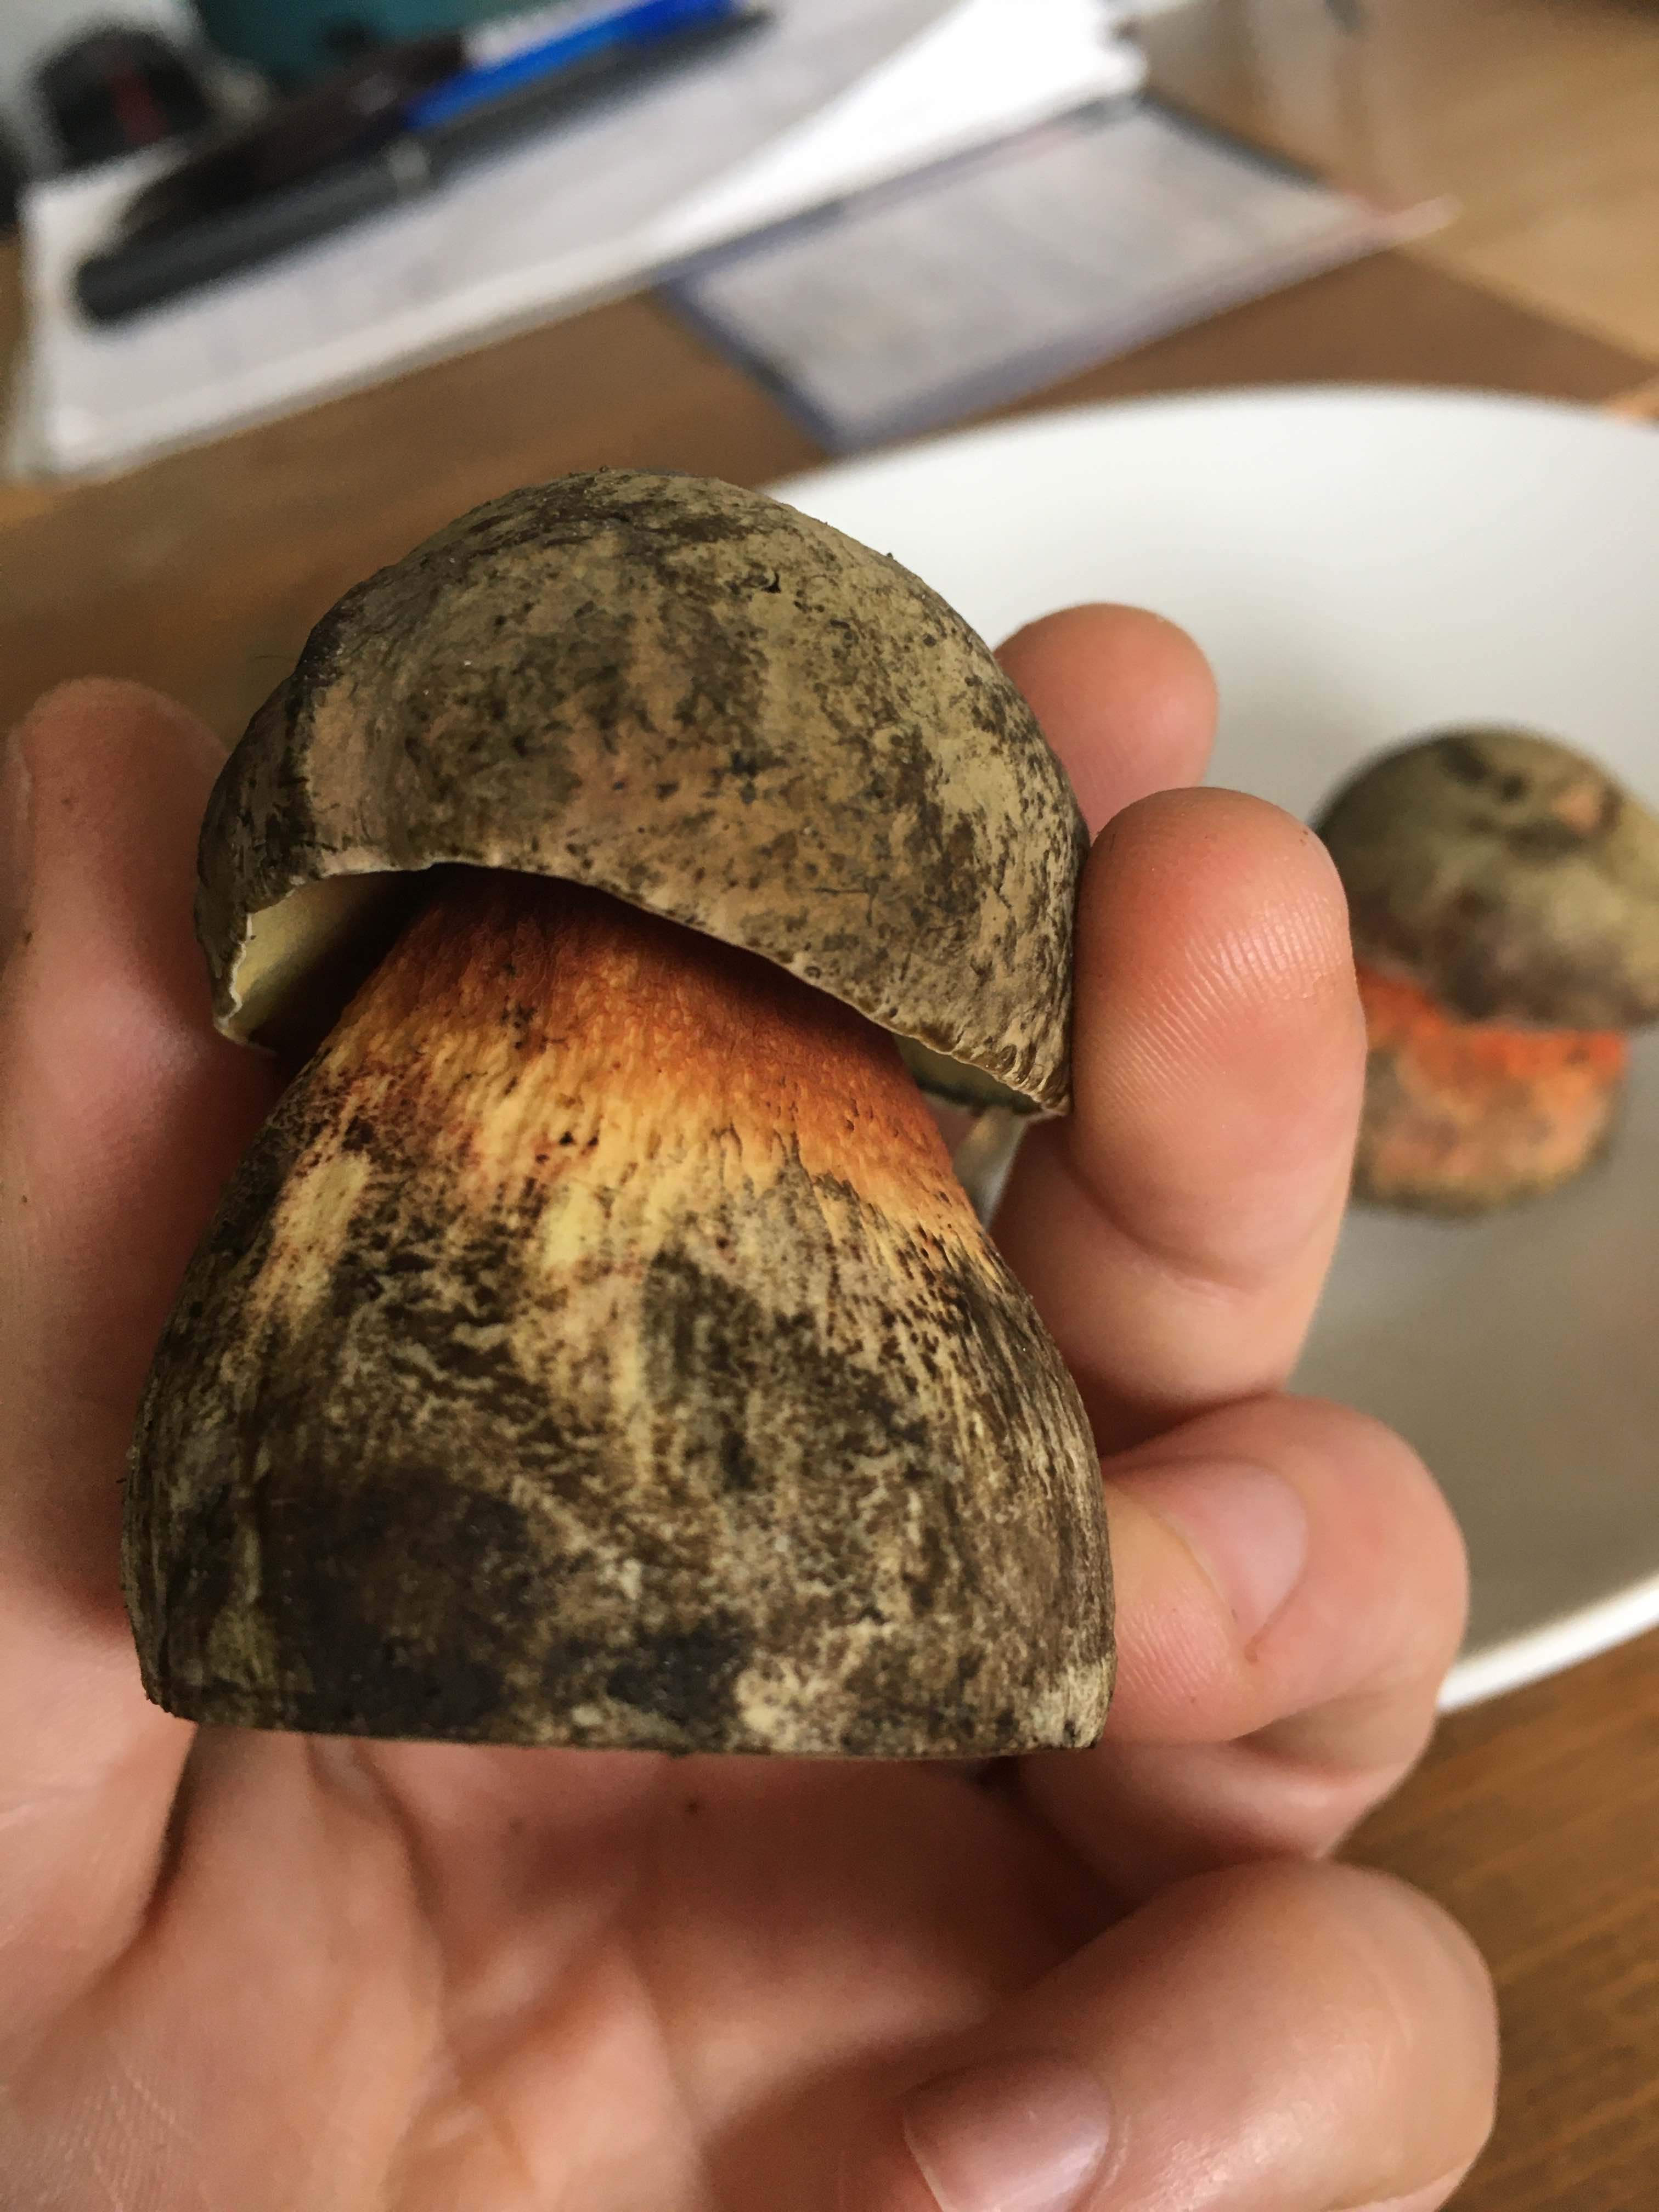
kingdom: Fungi
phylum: Basidiomycota
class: Agaricomycetes
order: Boletales
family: Boletaceae
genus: Suillellus
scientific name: Suillellus luridus
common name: netstokket indigorørhat
